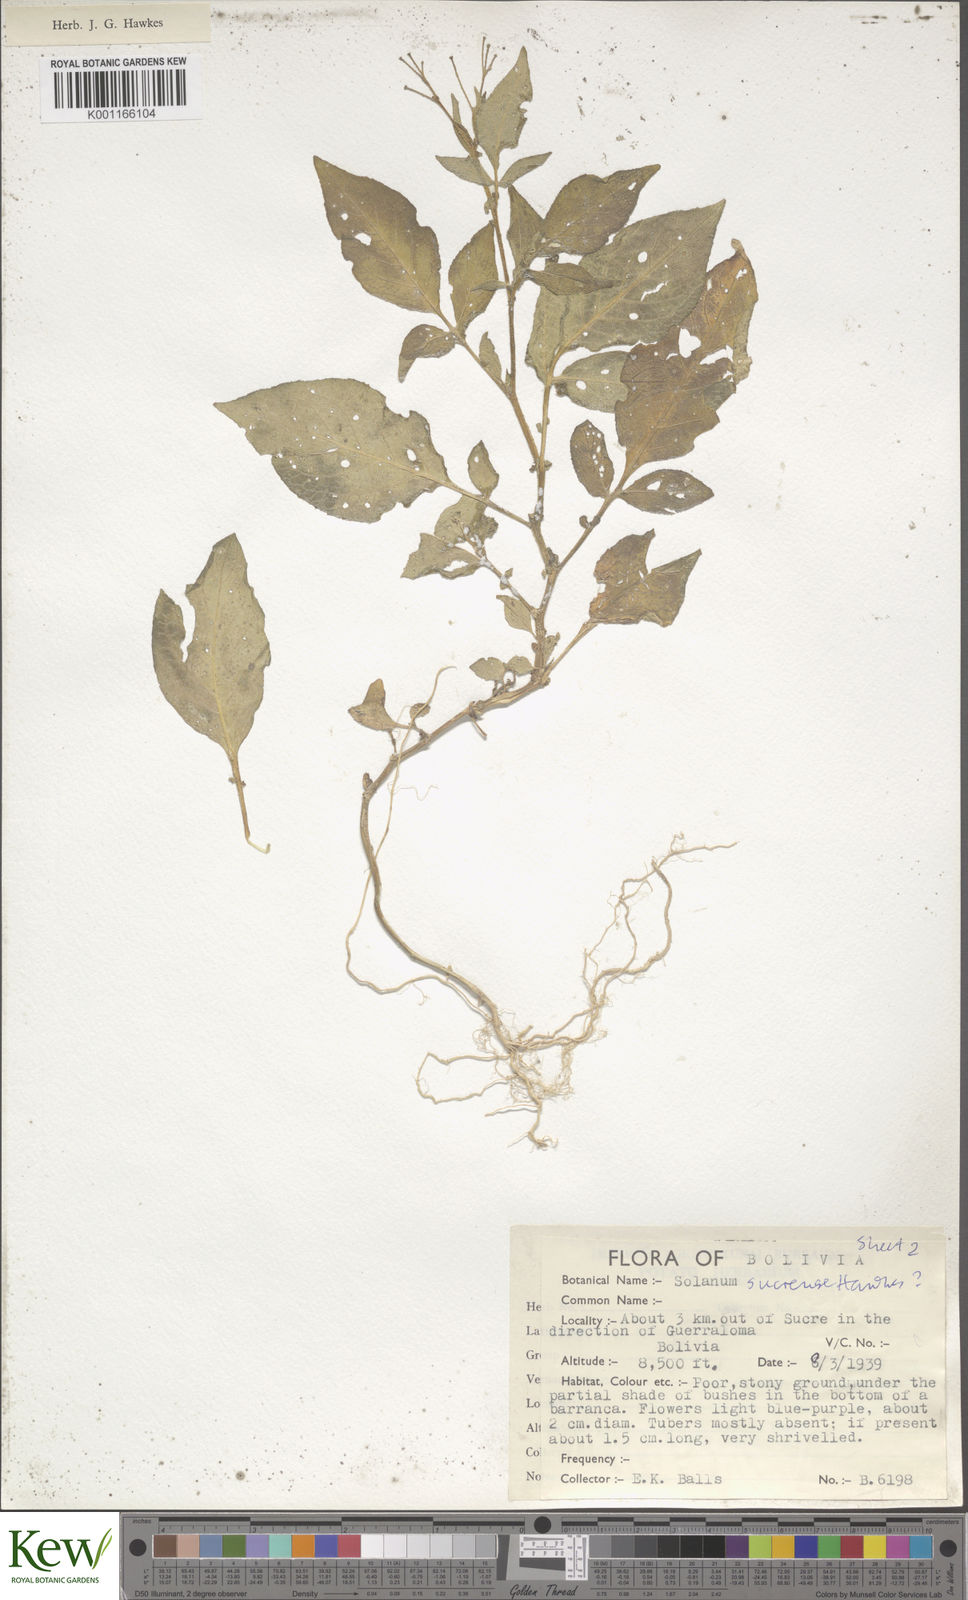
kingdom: Plantae
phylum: Tracheophyta
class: Magnoliopsida
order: Solanales
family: Solanaceae
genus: Solanum
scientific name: Solanum brevicaule
